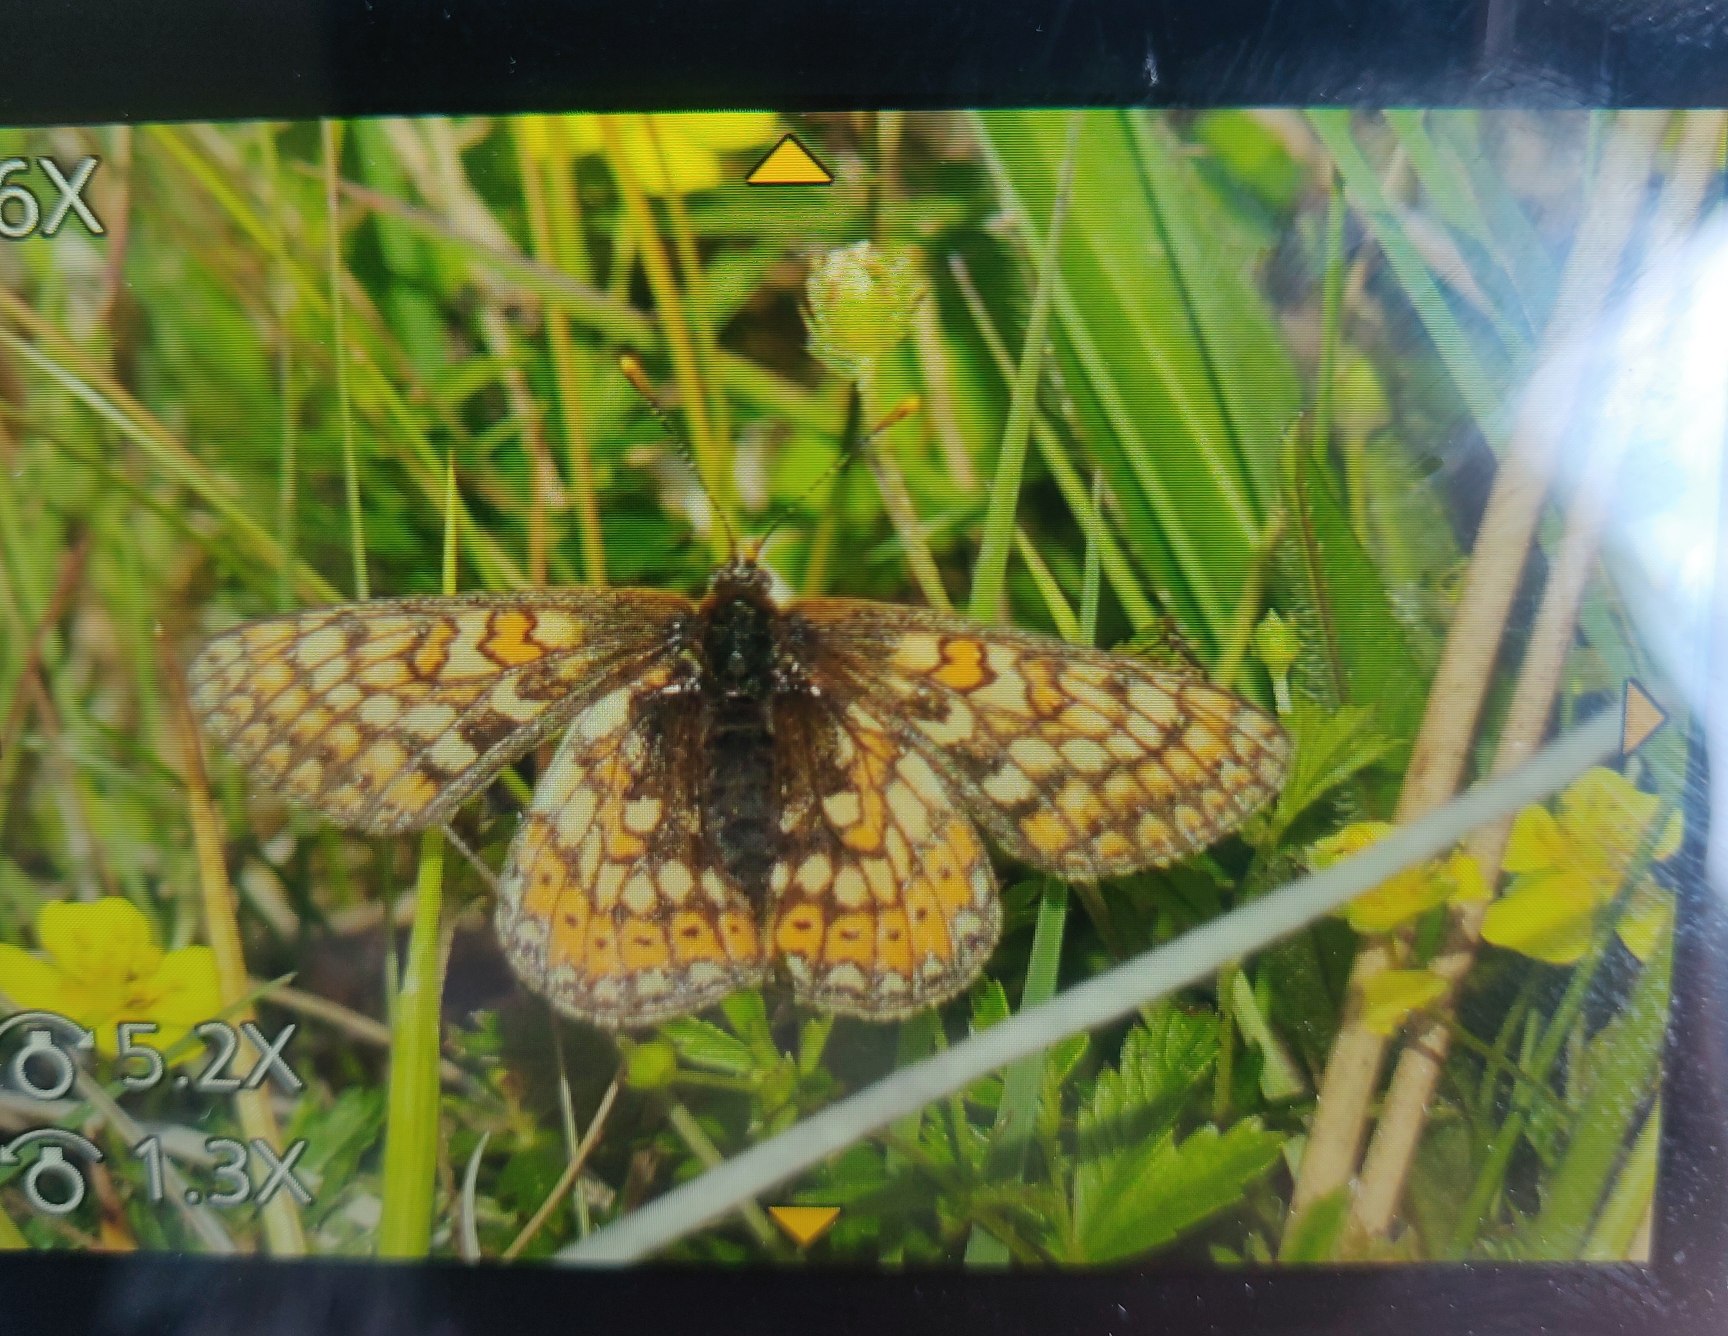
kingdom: Animalia
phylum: Arthropoda
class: Insecta
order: Lepidoptera
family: Nymphalidae
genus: Euphydryas
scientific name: Euphydryas aurinia
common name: Hedepletvinge
